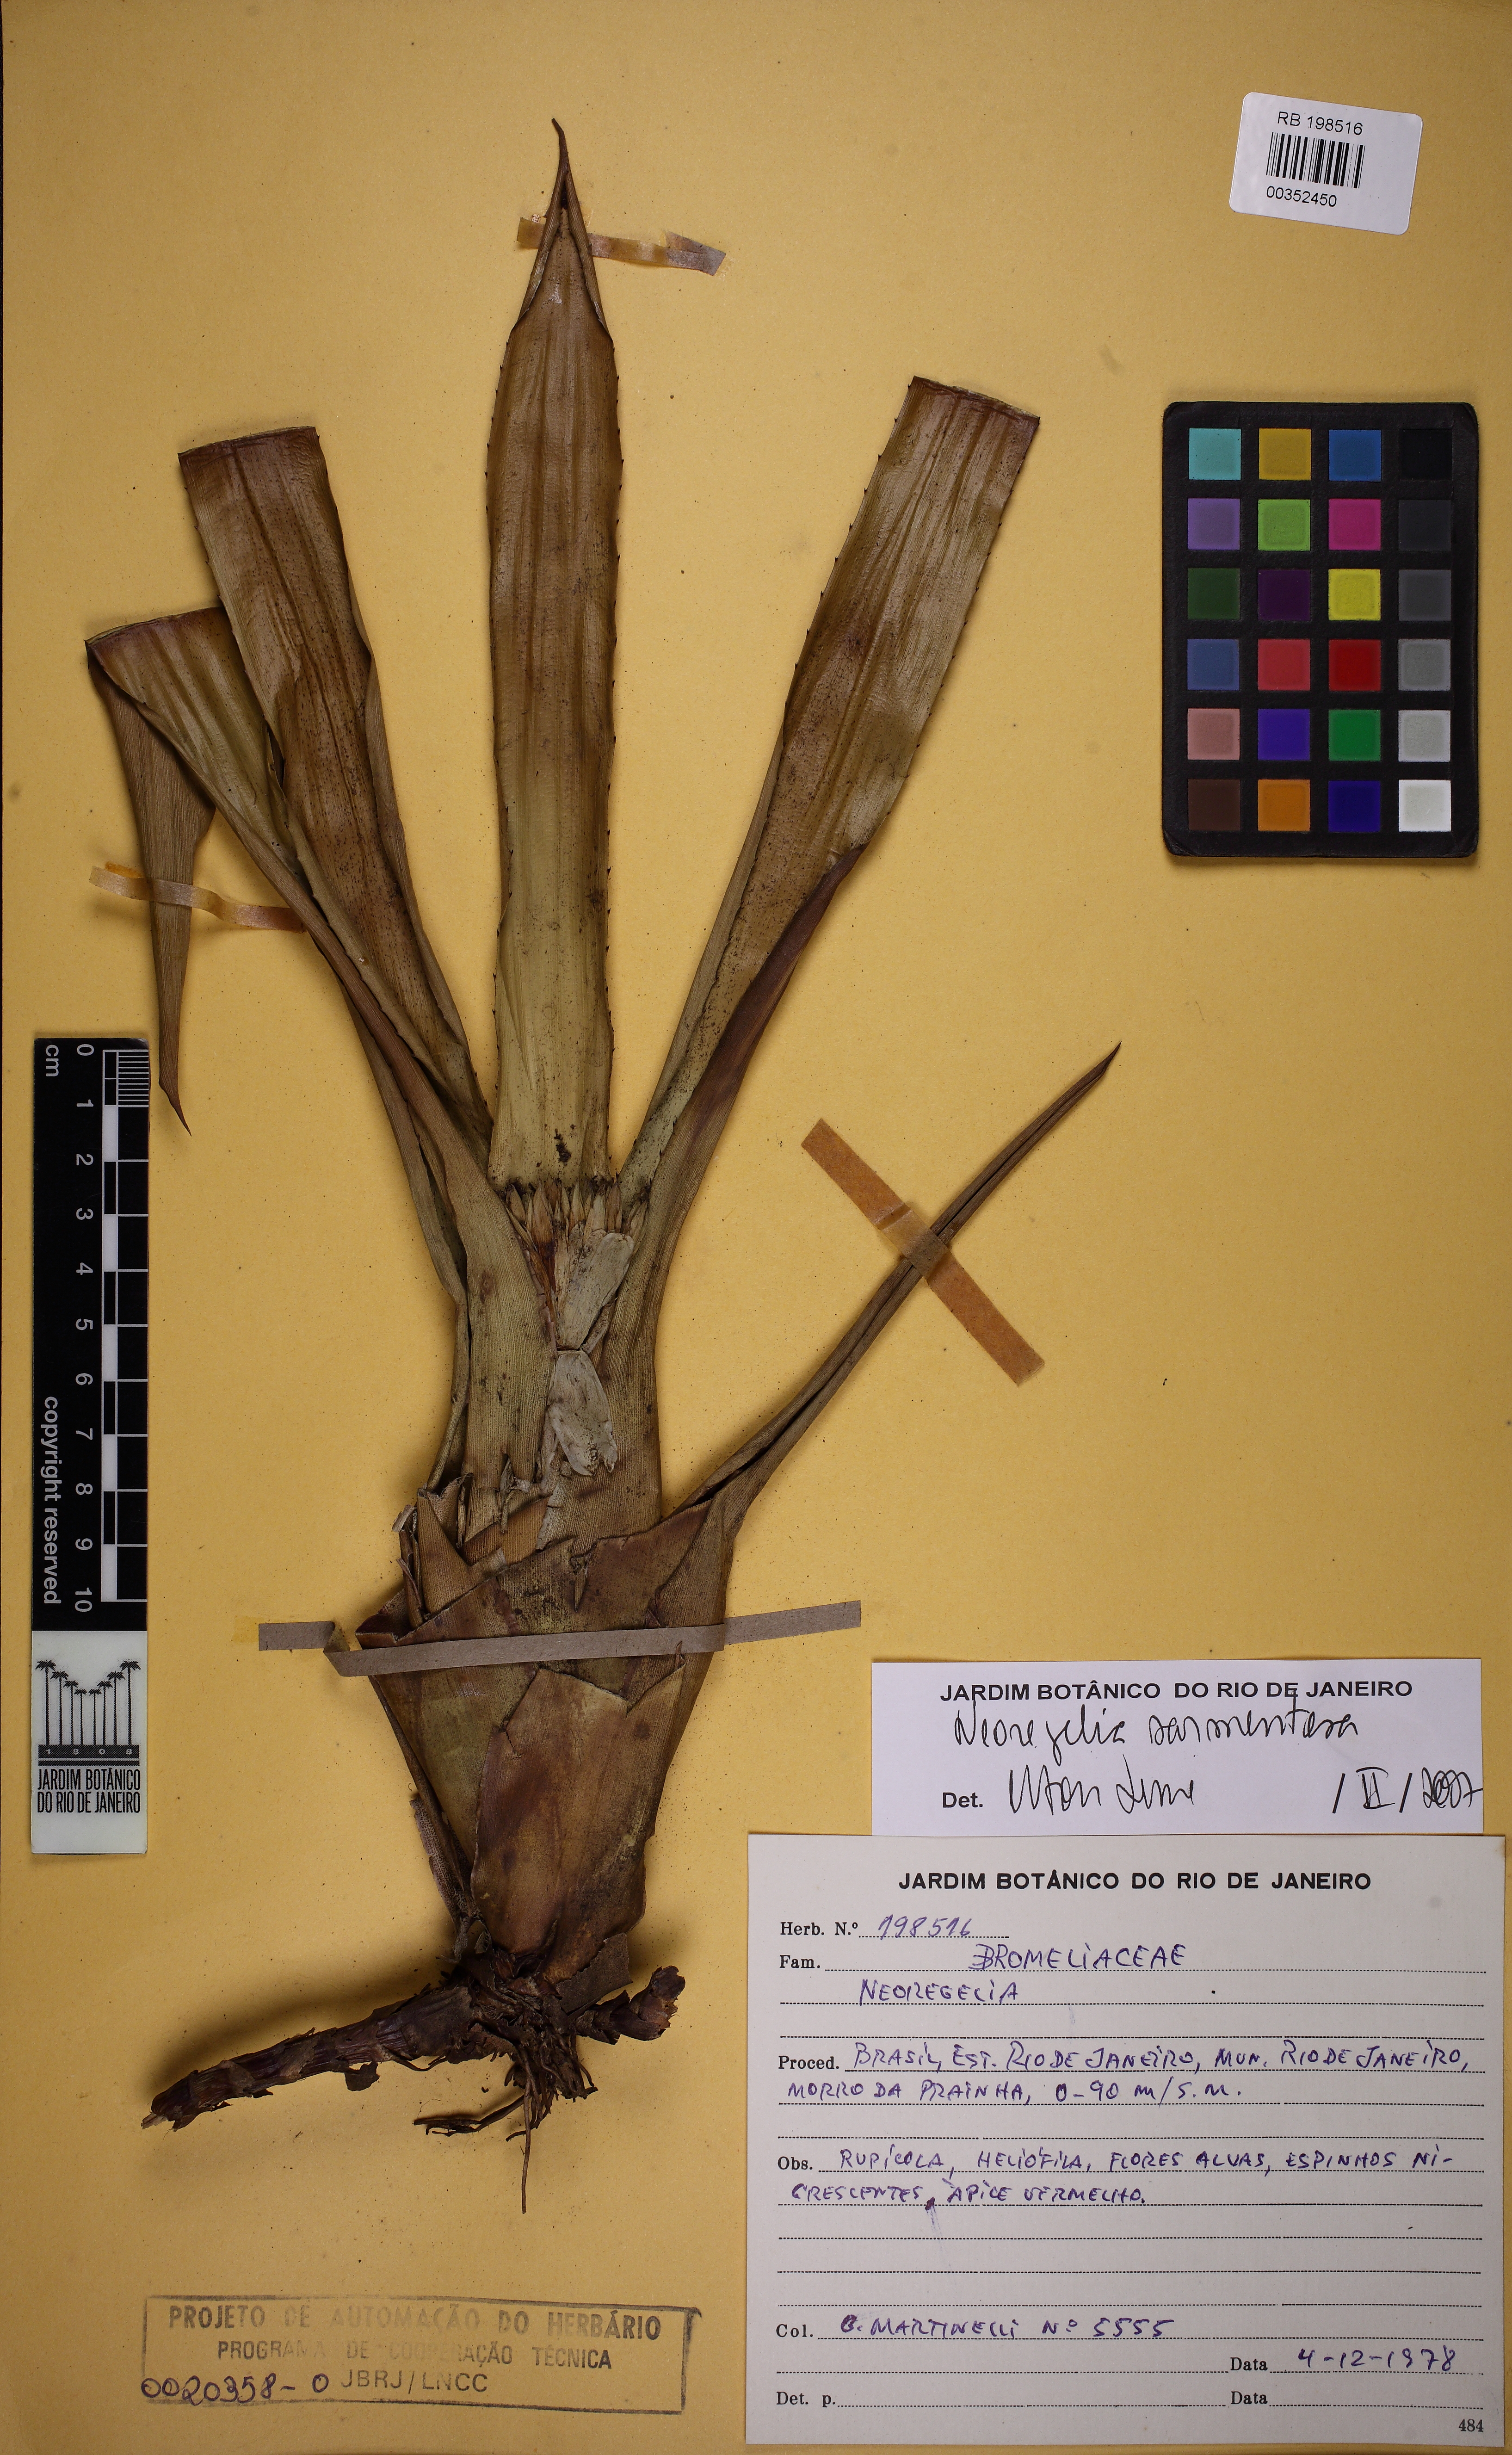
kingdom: Plantae
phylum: Tracheophyta
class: Liliopsida
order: Poales
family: Bromeliaceae
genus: Neoregelia
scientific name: Neoregelia sarmentosa
